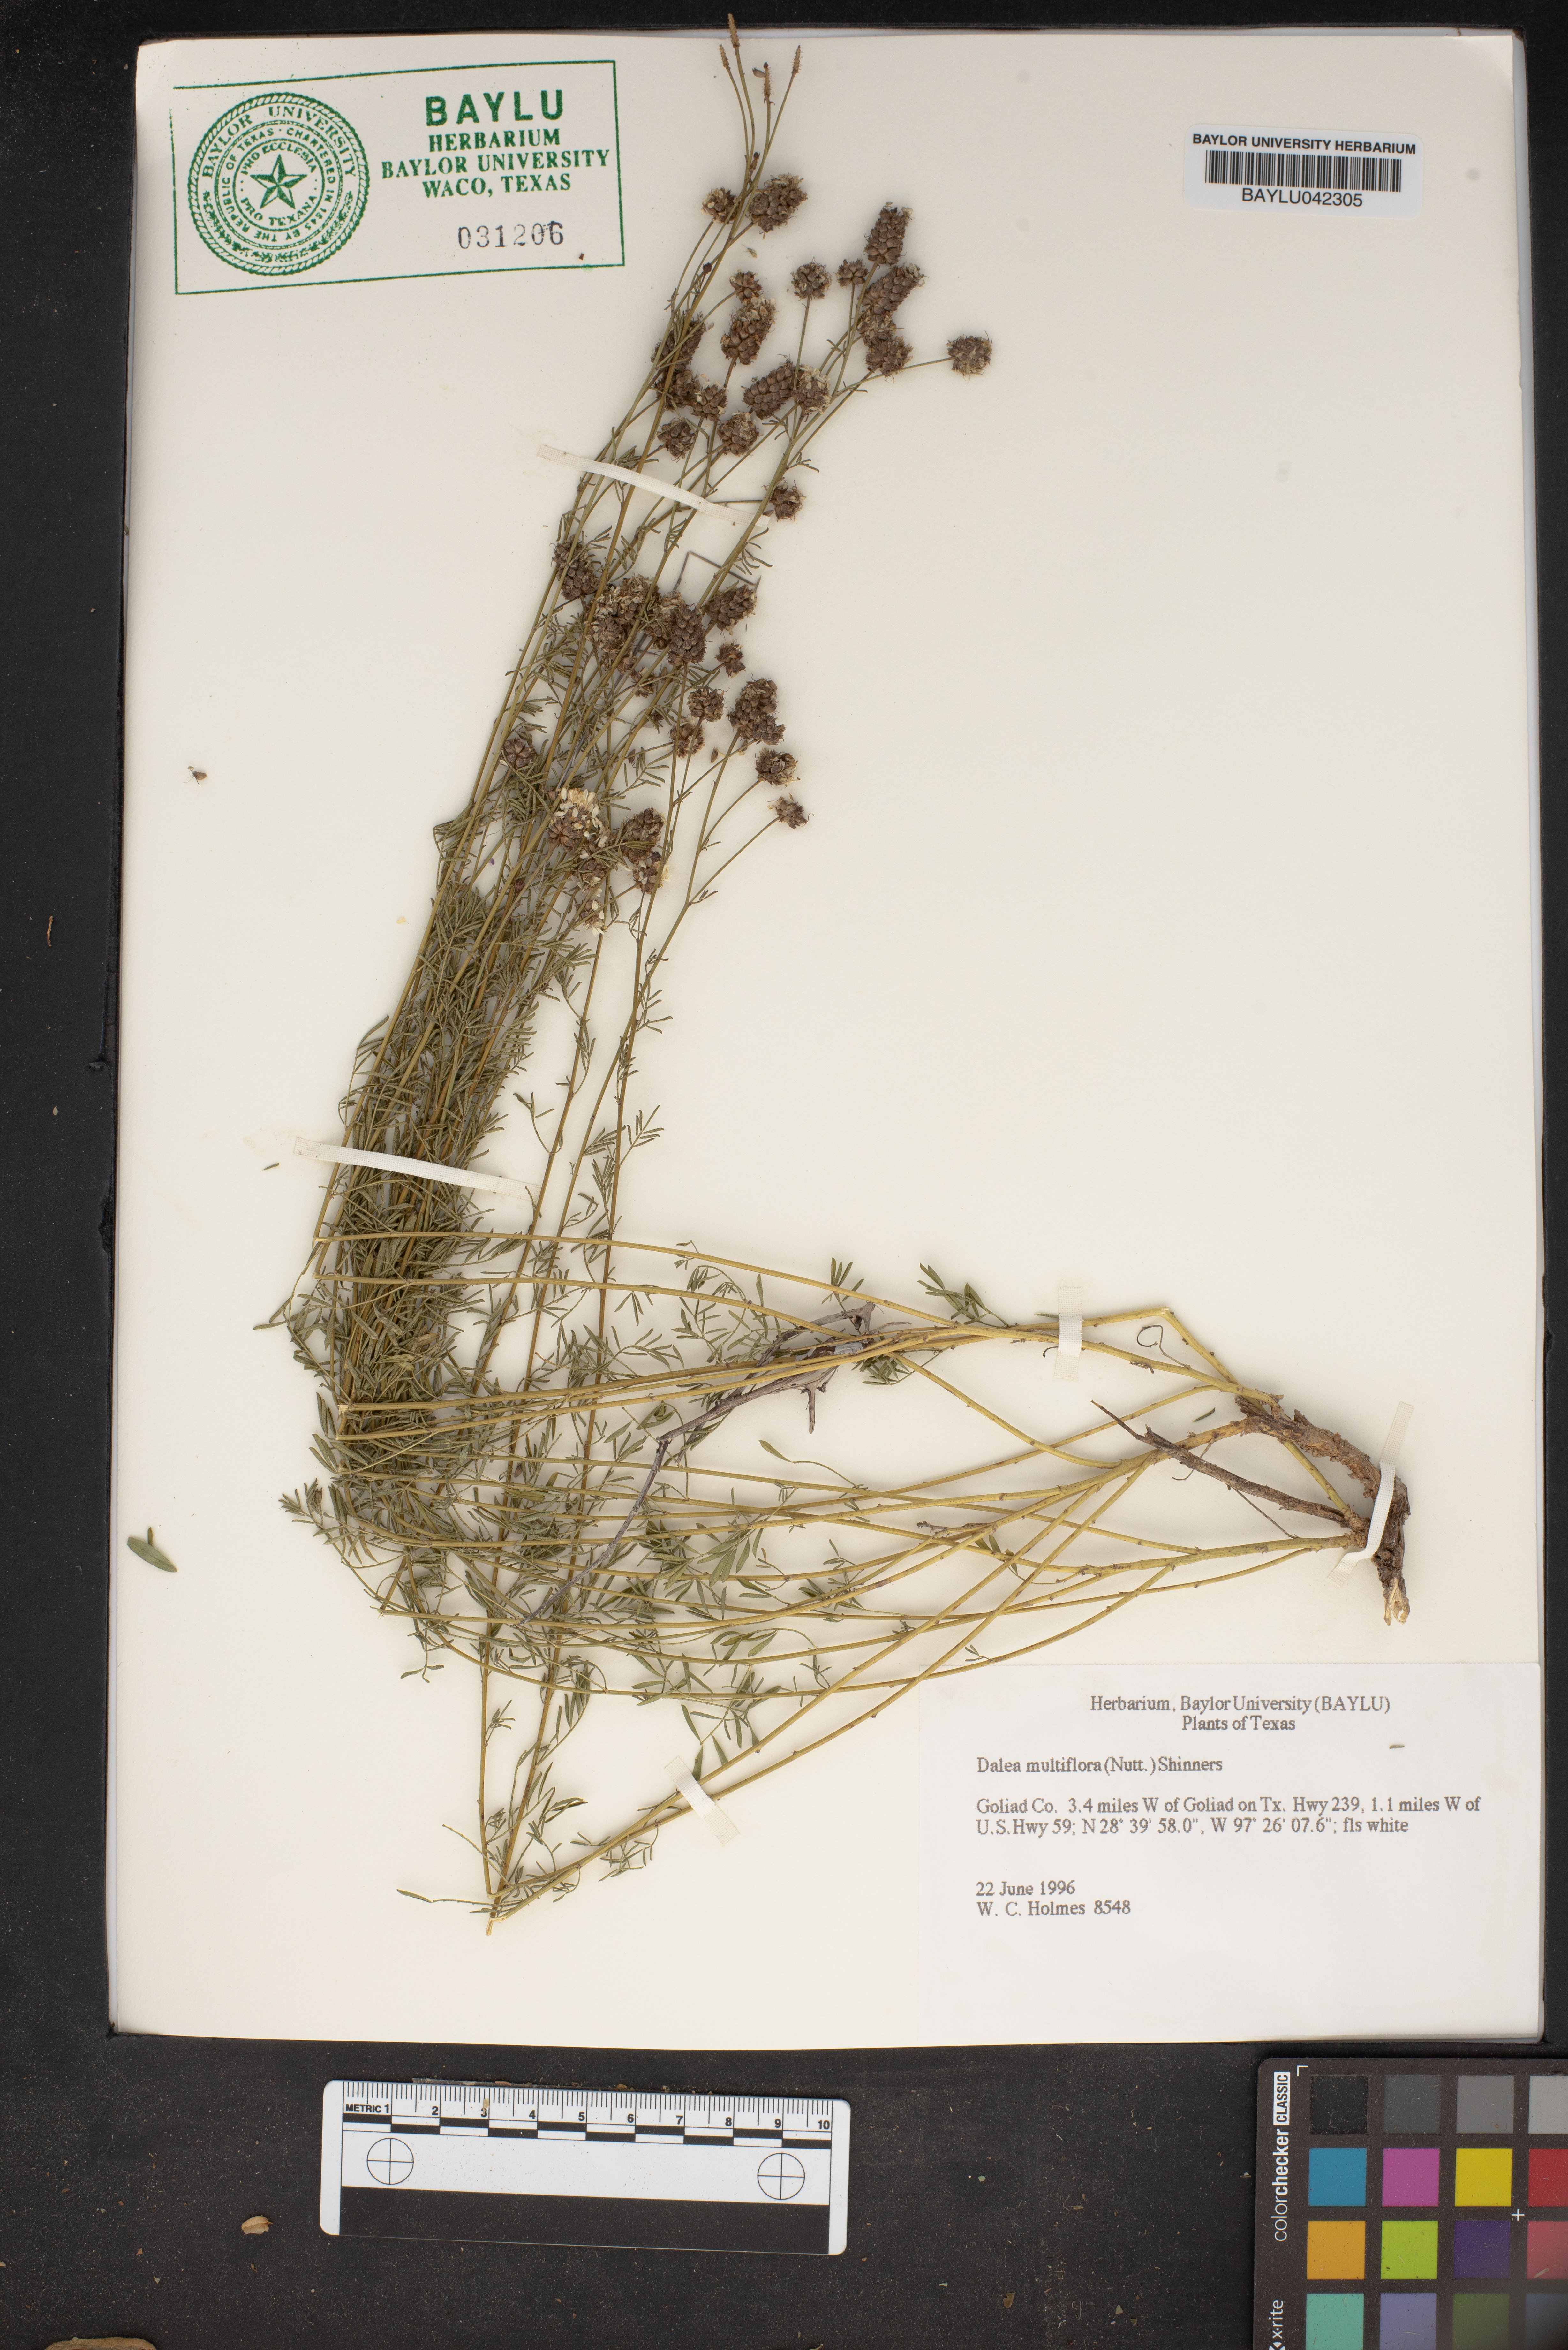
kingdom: Plantae
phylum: Tracheophyta
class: Magnoliopsida
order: Fabales
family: Fabaceae
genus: Dalea
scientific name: Dalea multiflora
